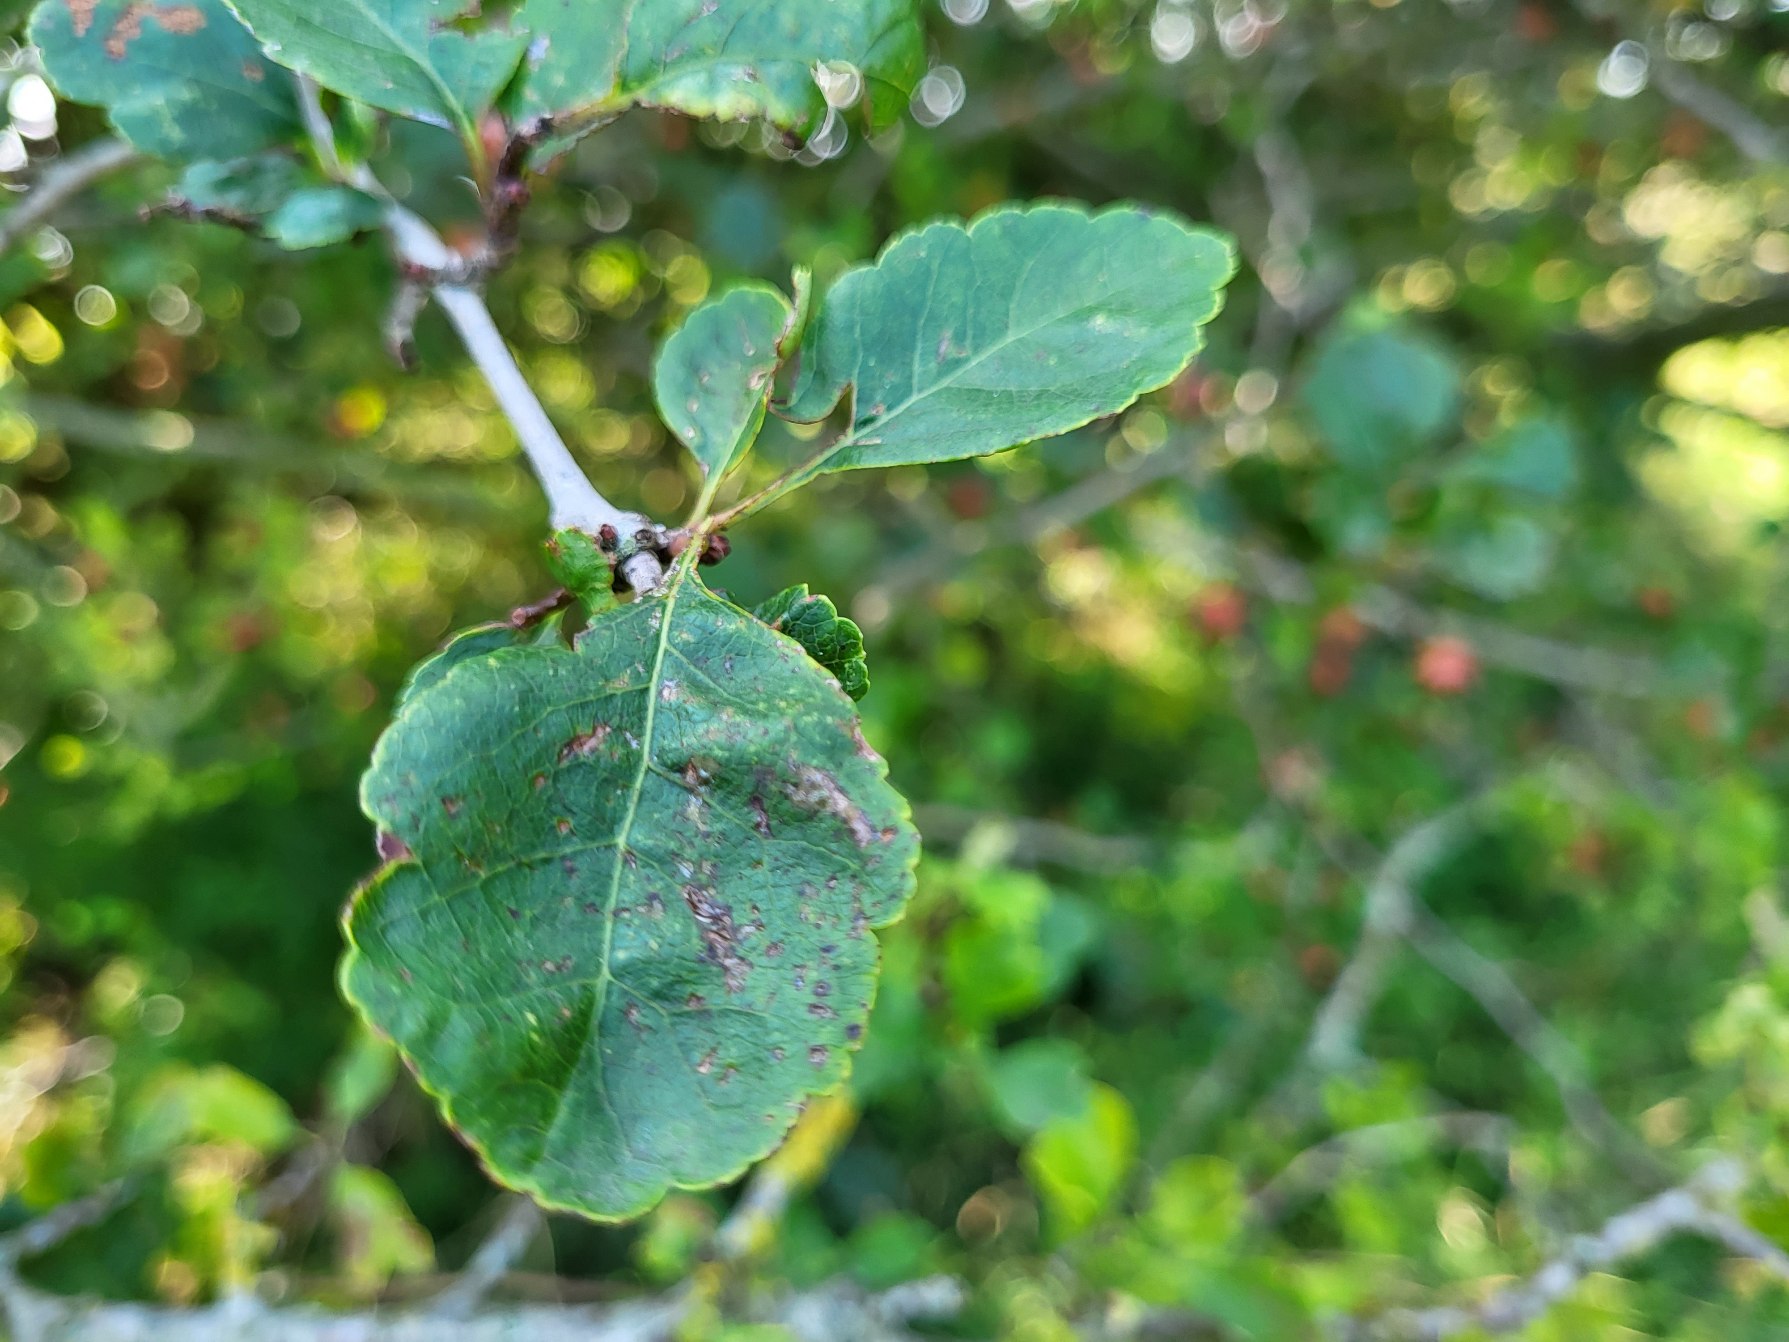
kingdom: Plantae
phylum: Tracheophyta
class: Magnoliopsida
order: Rosales
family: Rosaceae
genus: Crataegus
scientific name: Crataegus laevigata
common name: Almindelig hvidtjørn
